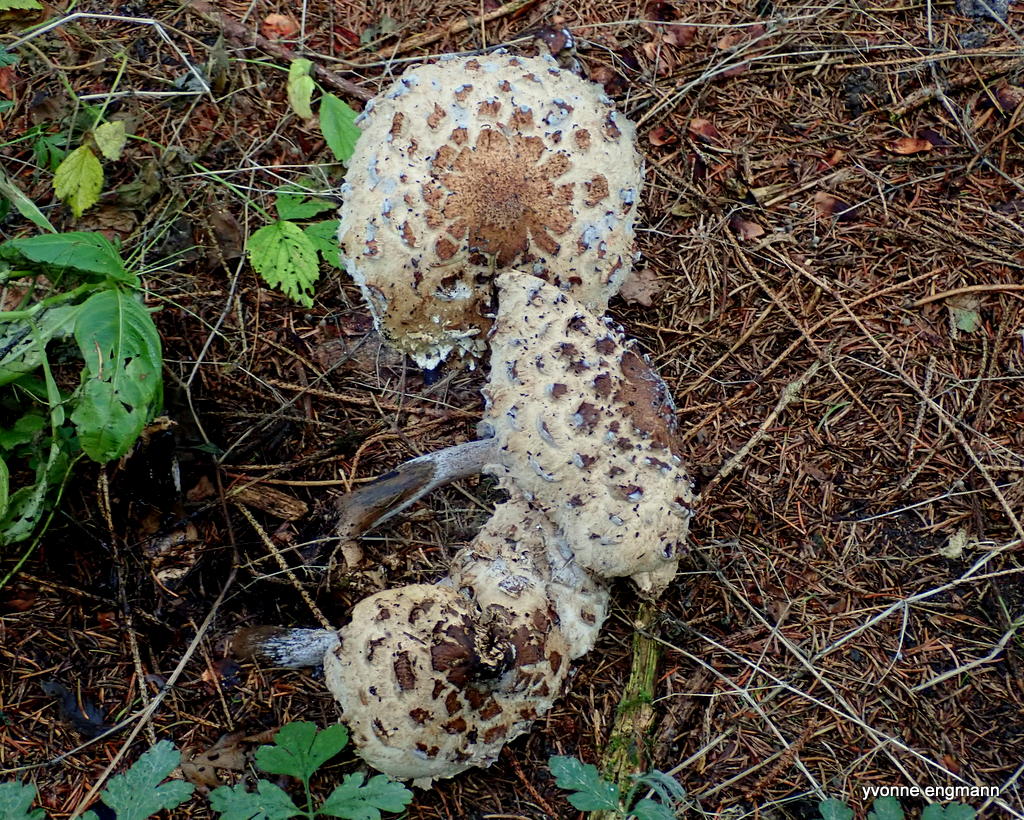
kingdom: Fungi
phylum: Basidiomycota
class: Agaricomycetes
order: Agaricales
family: Agaricaceae
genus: Agaricus
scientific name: Agaricus impudicus
